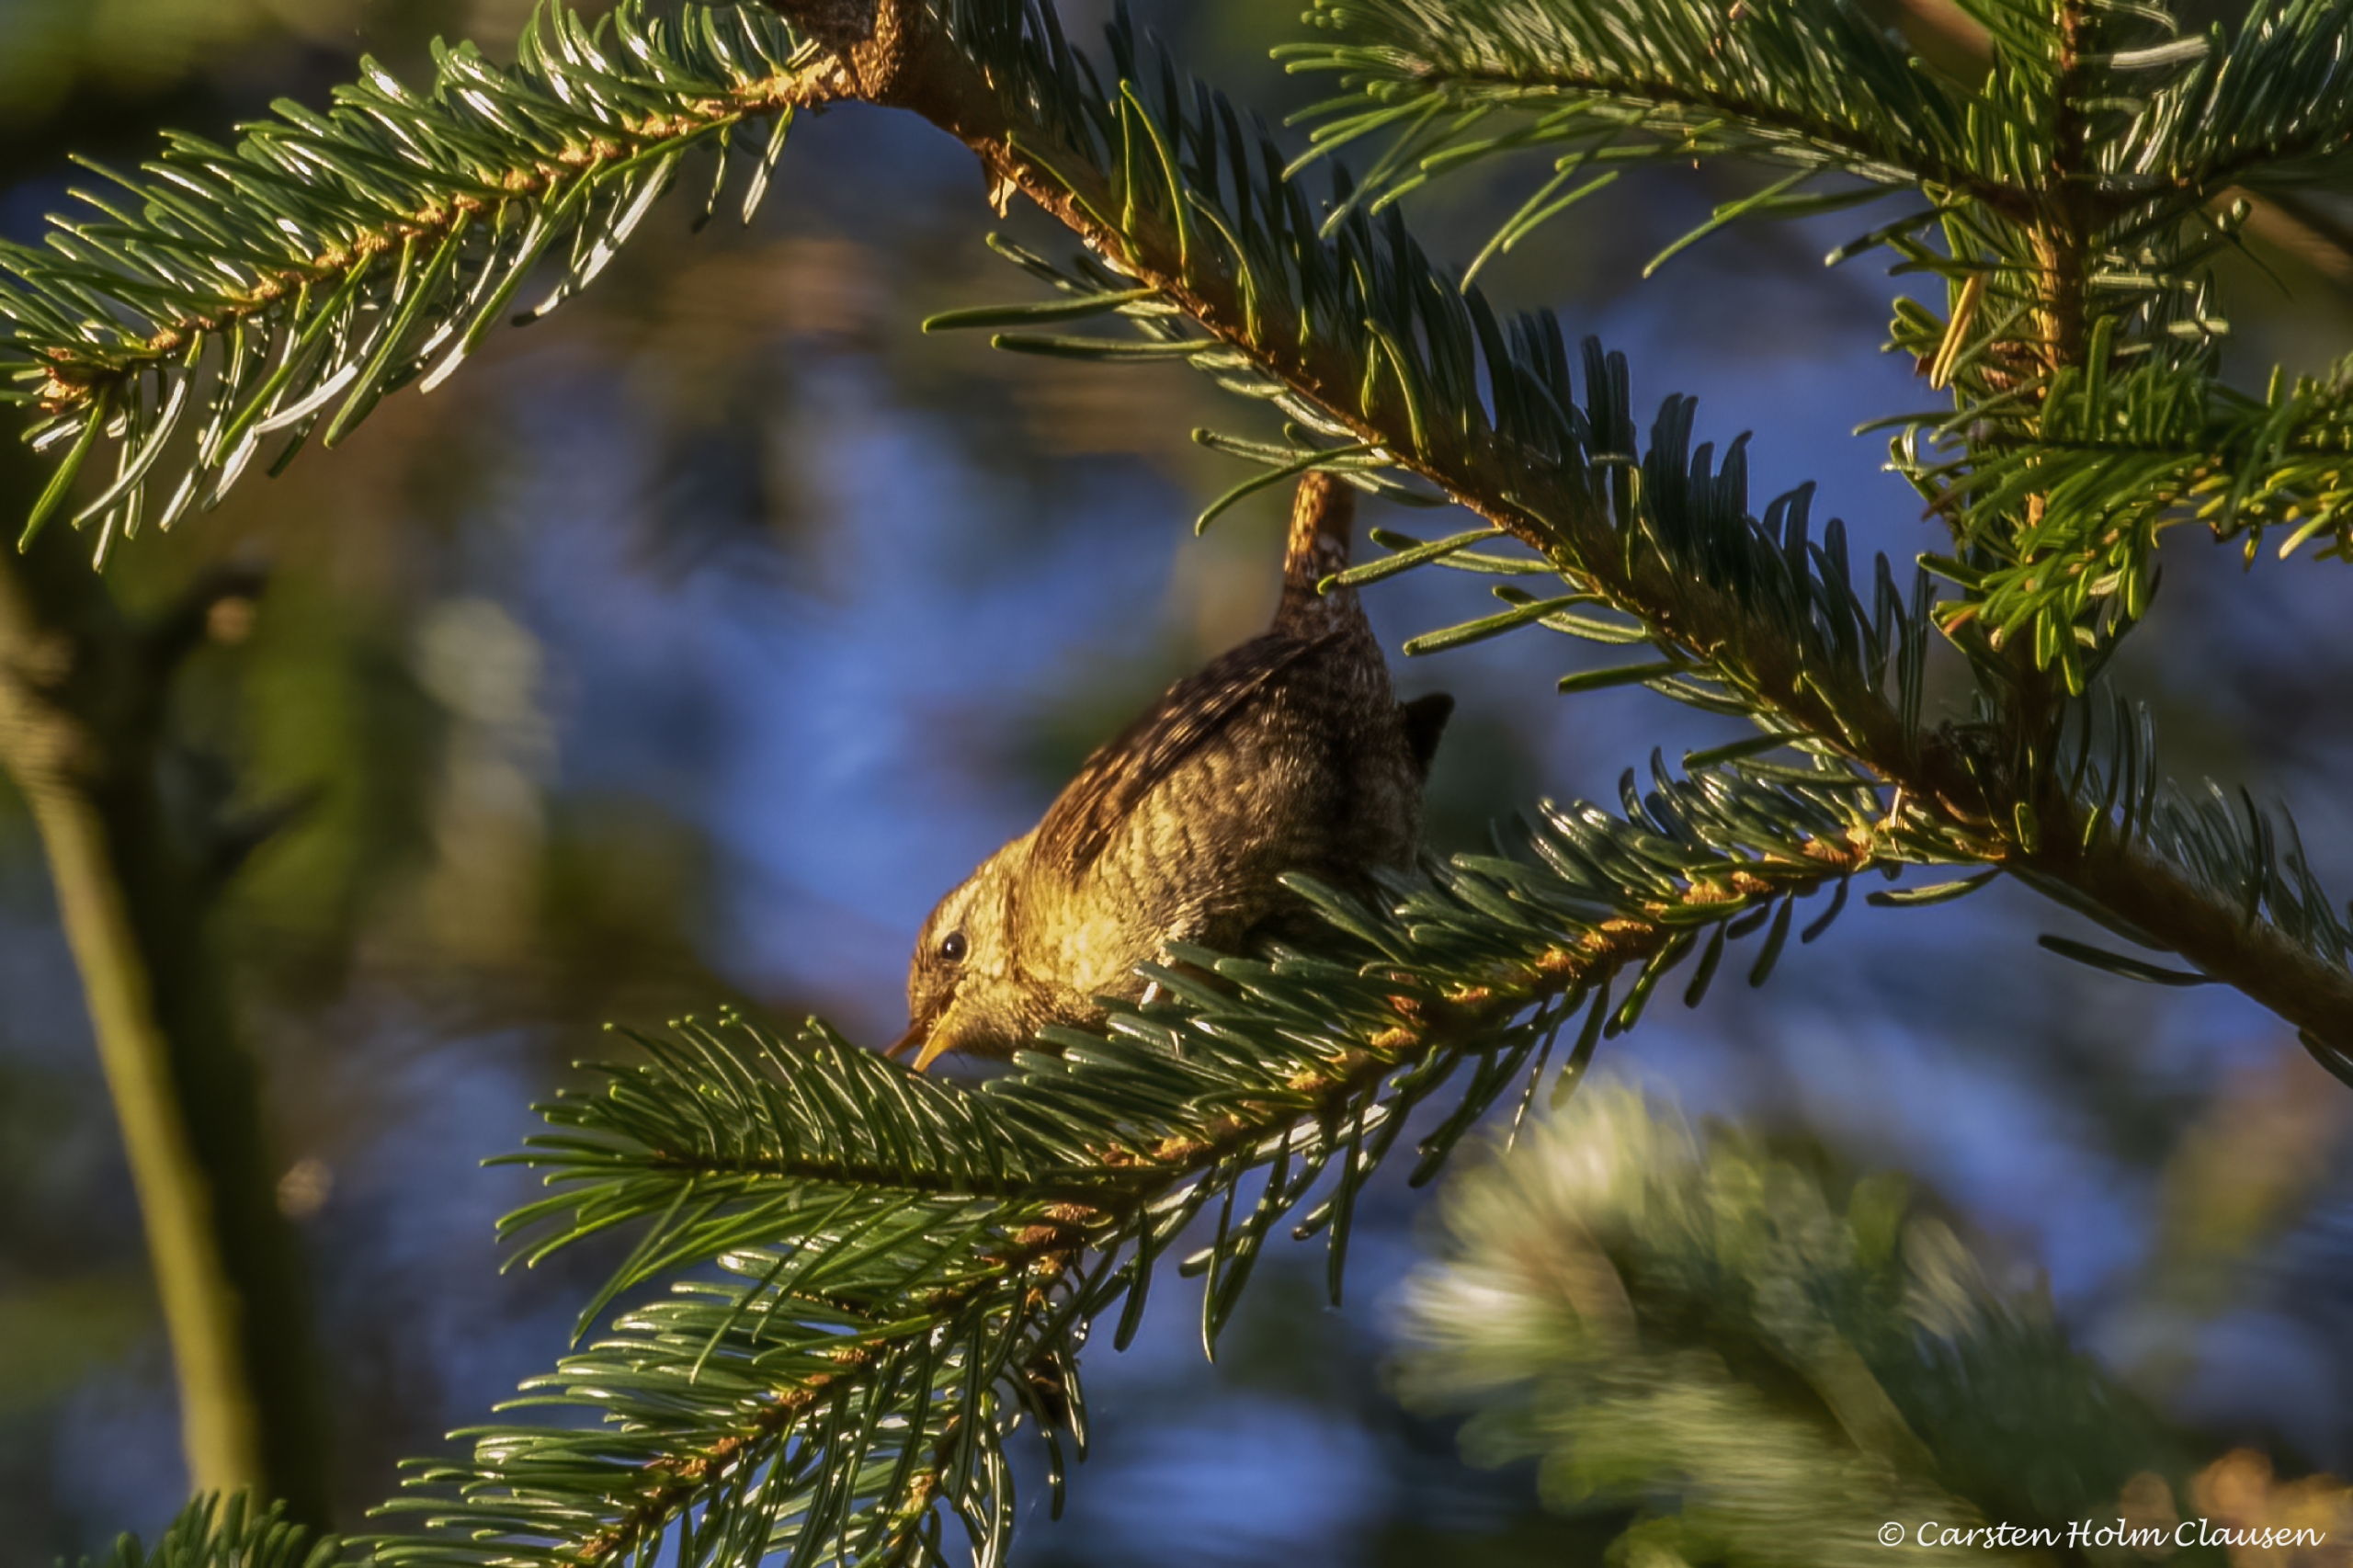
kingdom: Animalia
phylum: Chordata
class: Aves
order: Passeriformes
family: Troglodytidae
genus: Troglodytes
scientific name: Troglodytes troglodytes
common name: Gærdesmutte
